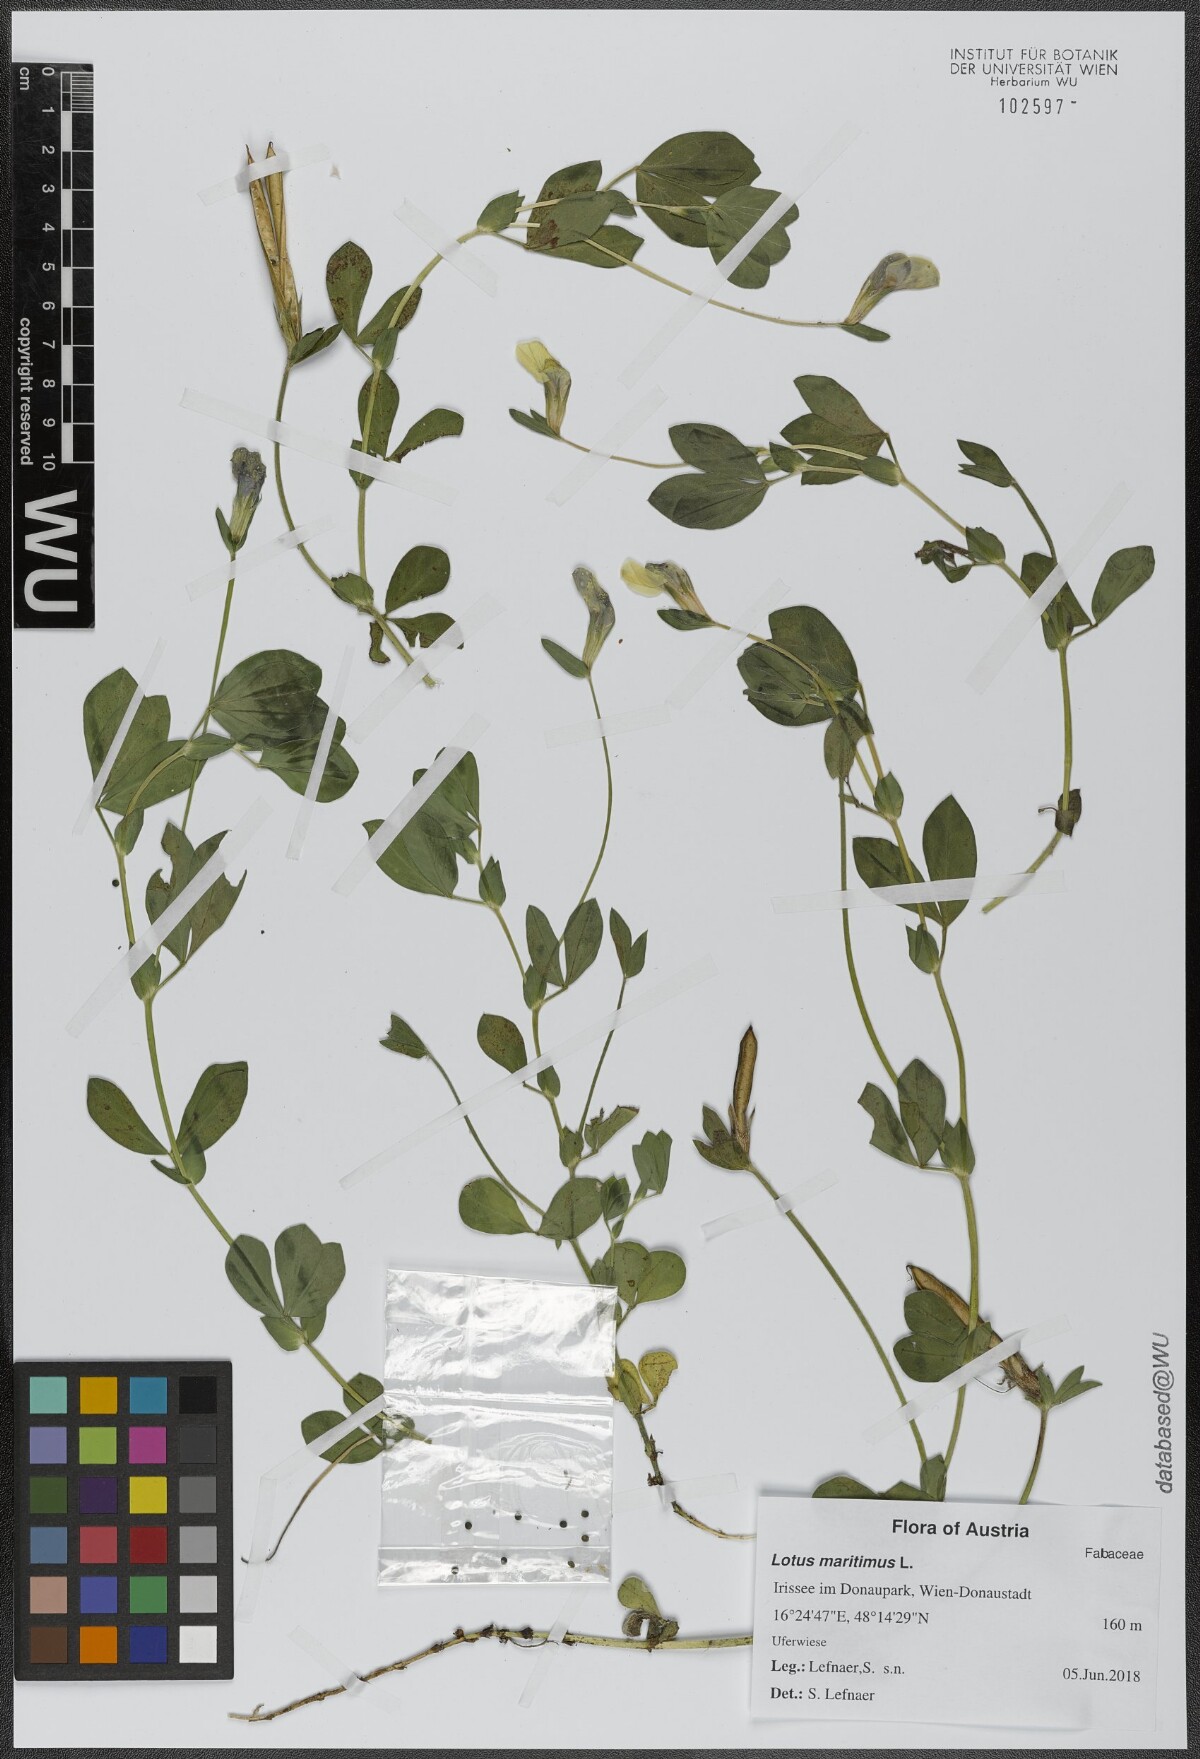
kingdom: Plantae
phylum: Tracheophyta
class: Magnoliopsida
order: Fabales
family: Fabaceae
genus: Lotus
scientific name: Lotus maritimus
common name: Dragon's-teeth
